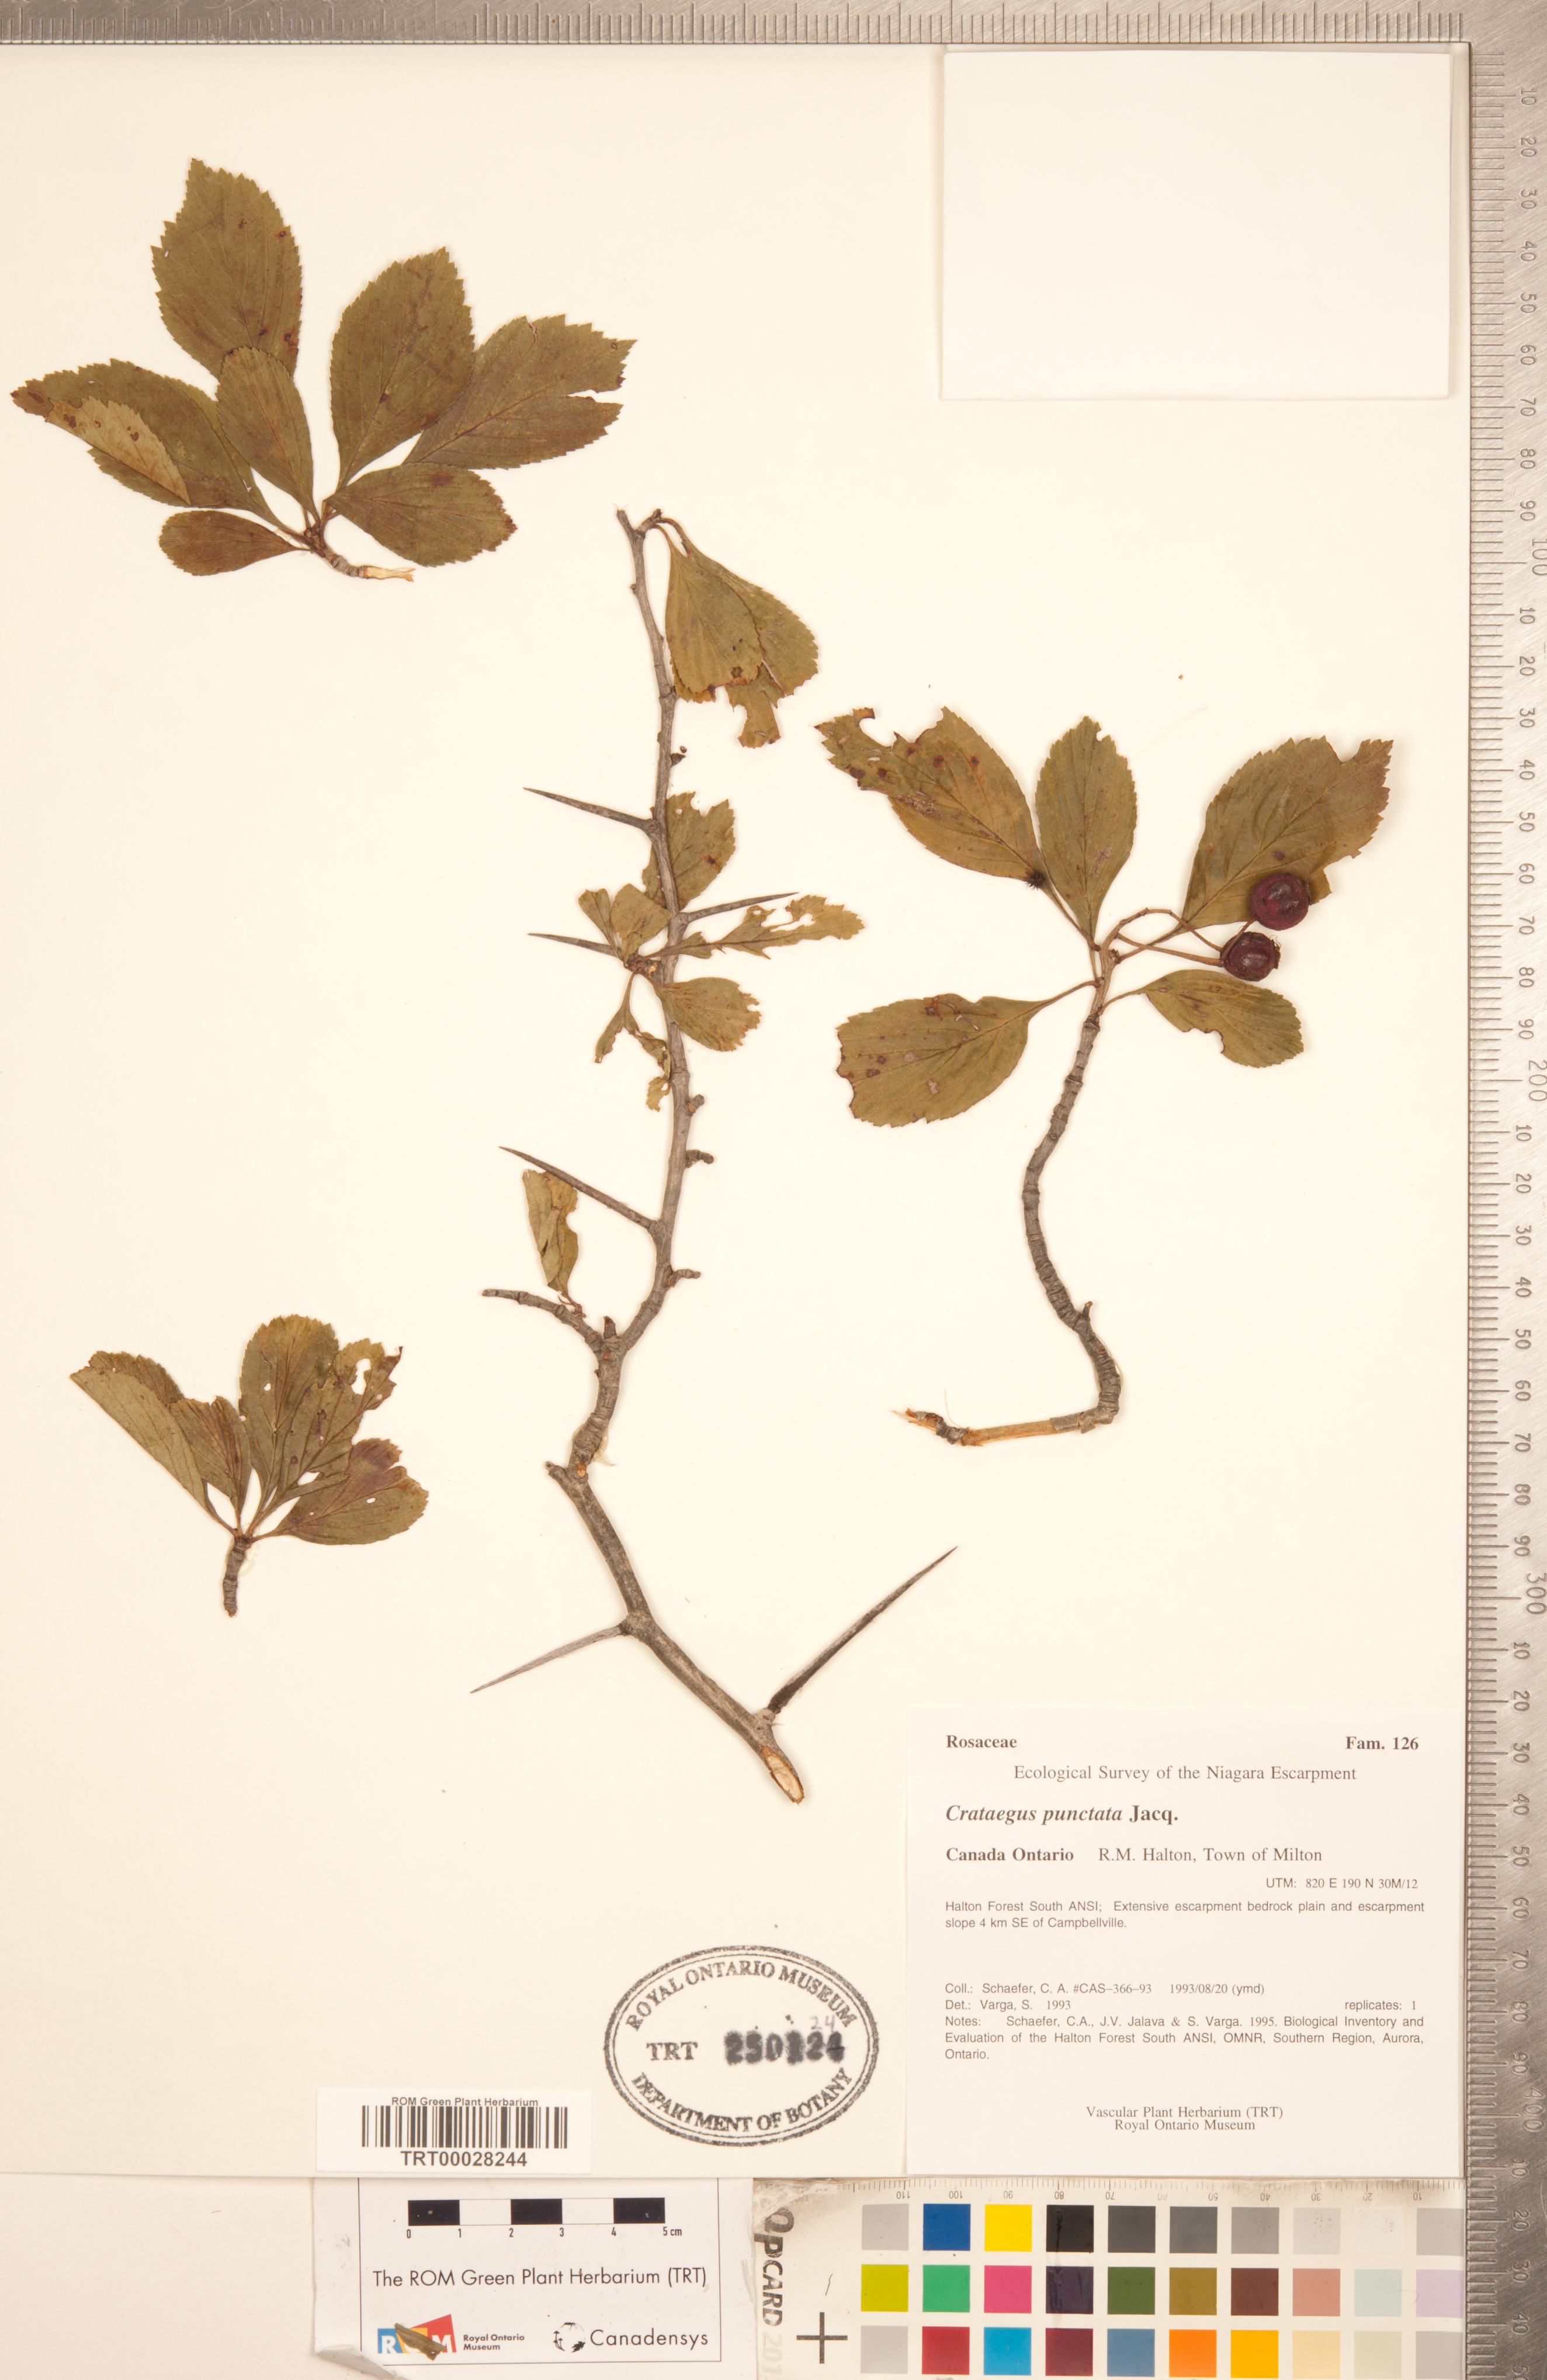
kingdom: Plantae
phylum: Tracheophyta
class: Magnoliopsida
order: Rosales
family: Rosaceae
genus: Crataegus
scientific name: Crataegus punctata
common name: Dotted hawthorn
